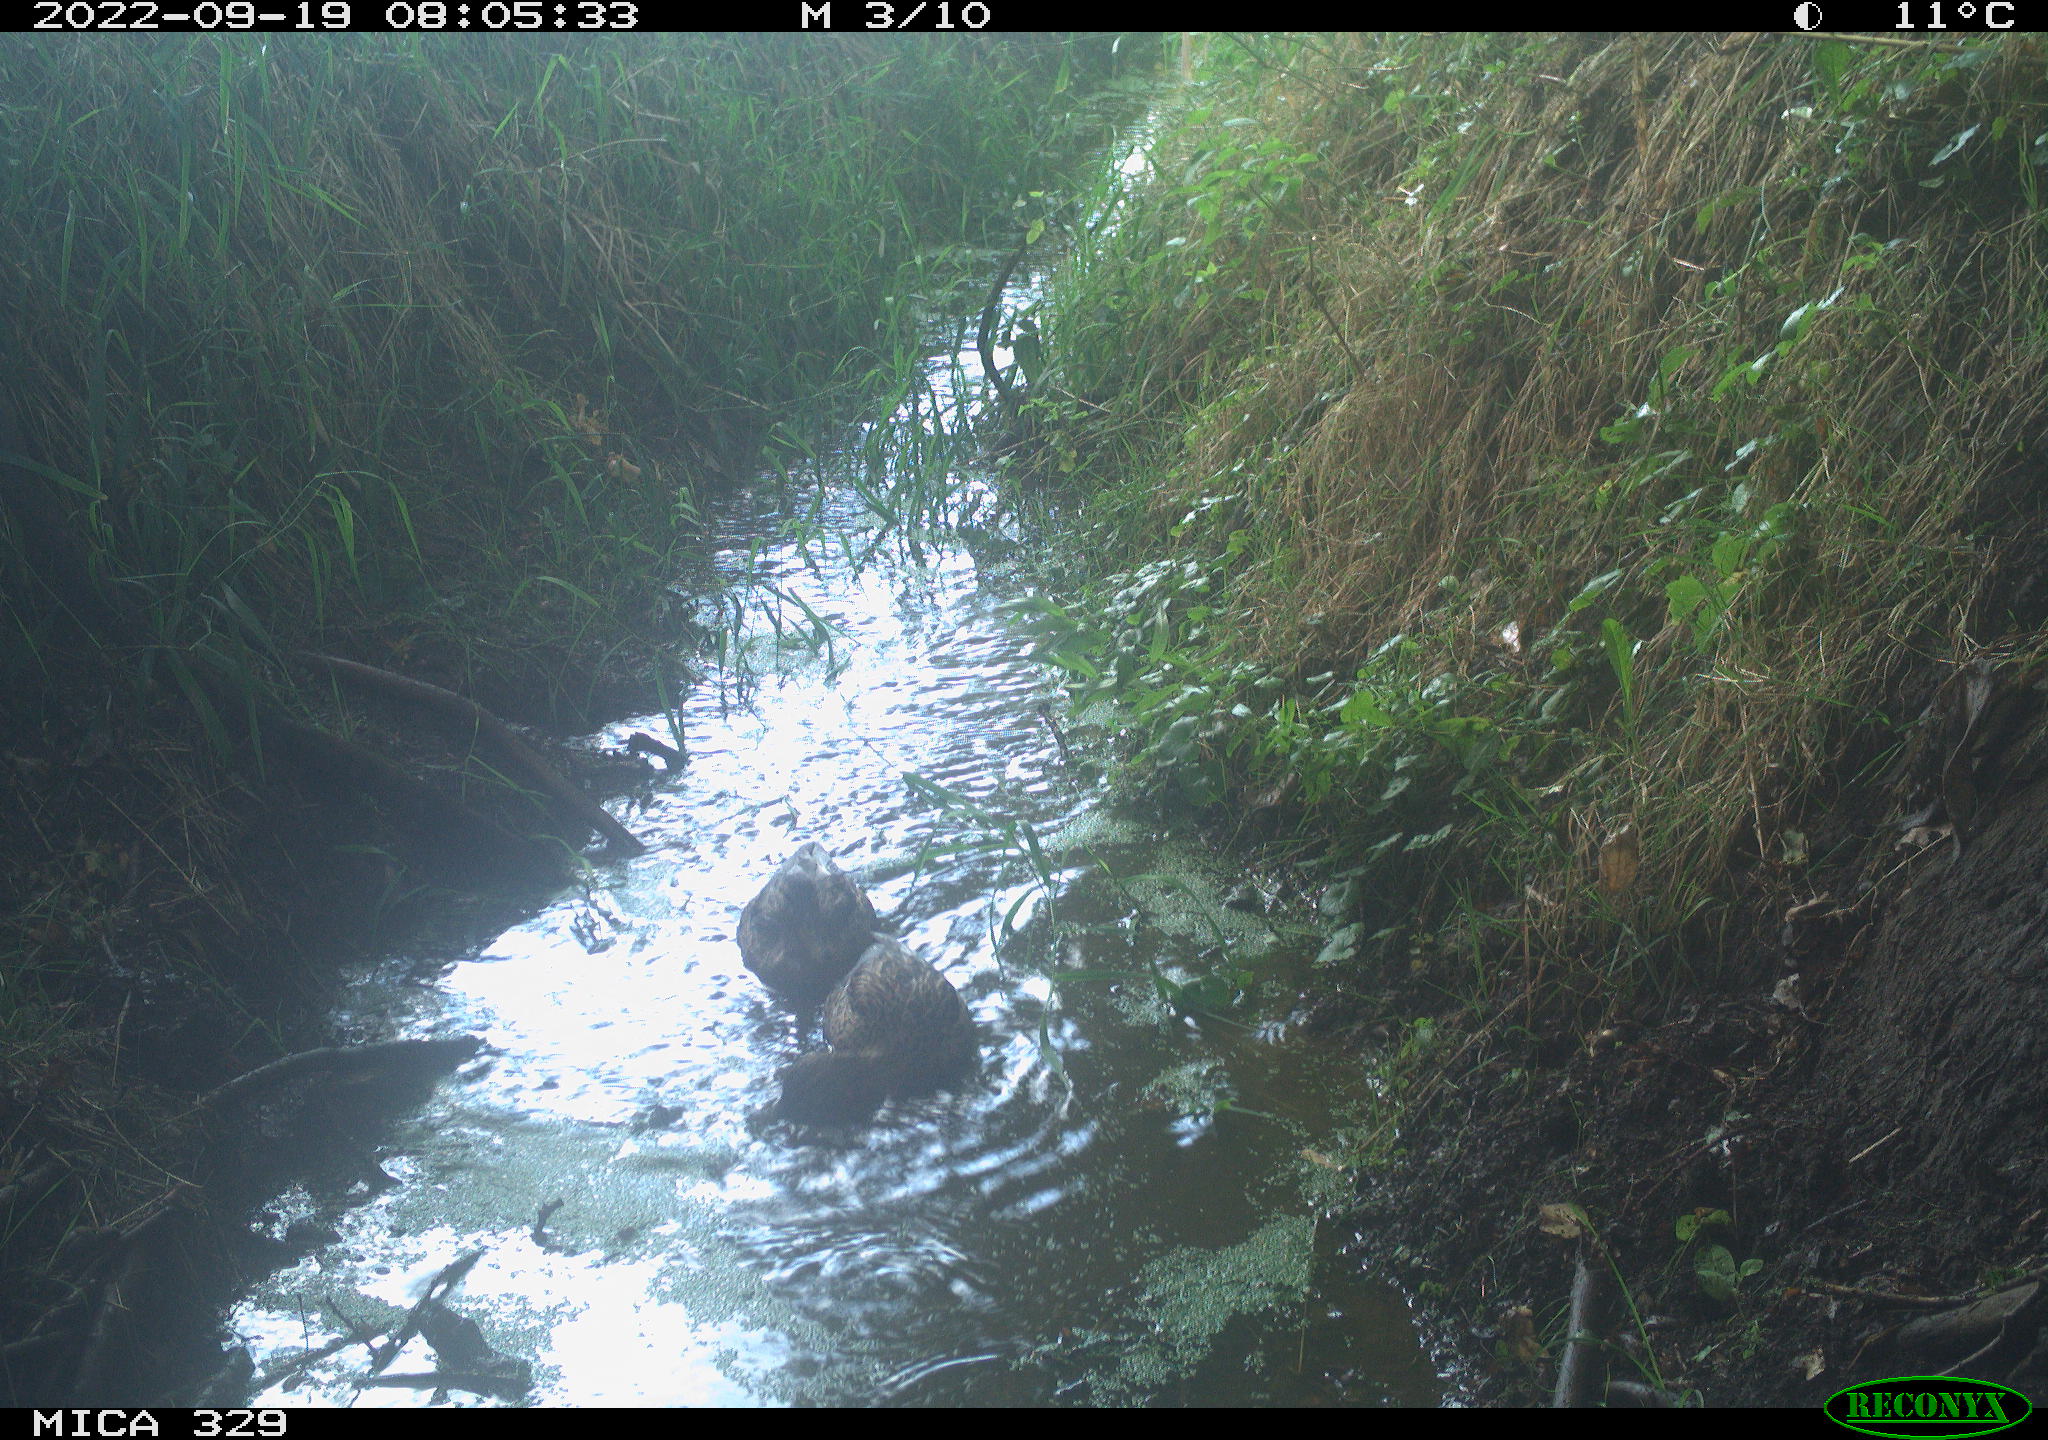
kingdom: Animalia
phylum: Chordata
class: Aves
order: Anseriformes
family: Anatidae
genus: Anas
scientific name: Anas platyrhynchos
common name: Mallard
